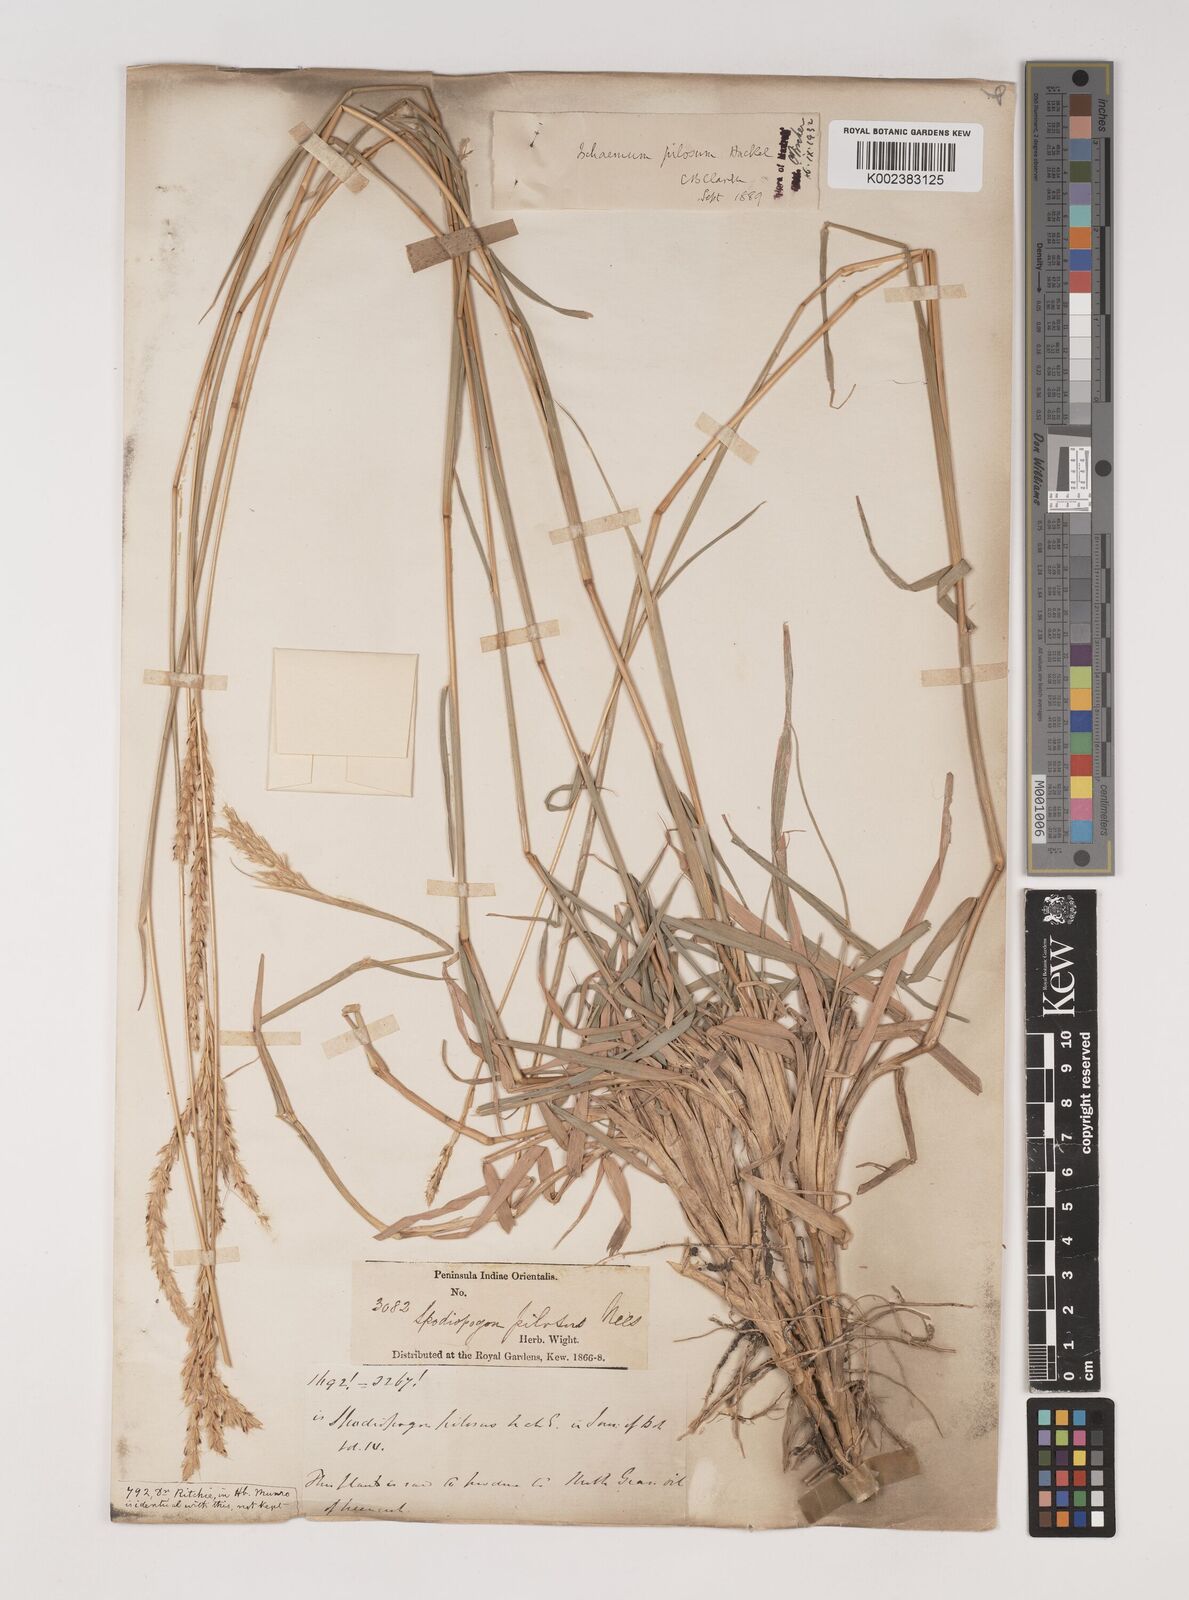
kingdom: Plantae
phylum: Tracheophyta
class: Liliopsida
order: Poales
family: Poaceae
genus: Ischaemum
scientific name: Ischaemum afrum
